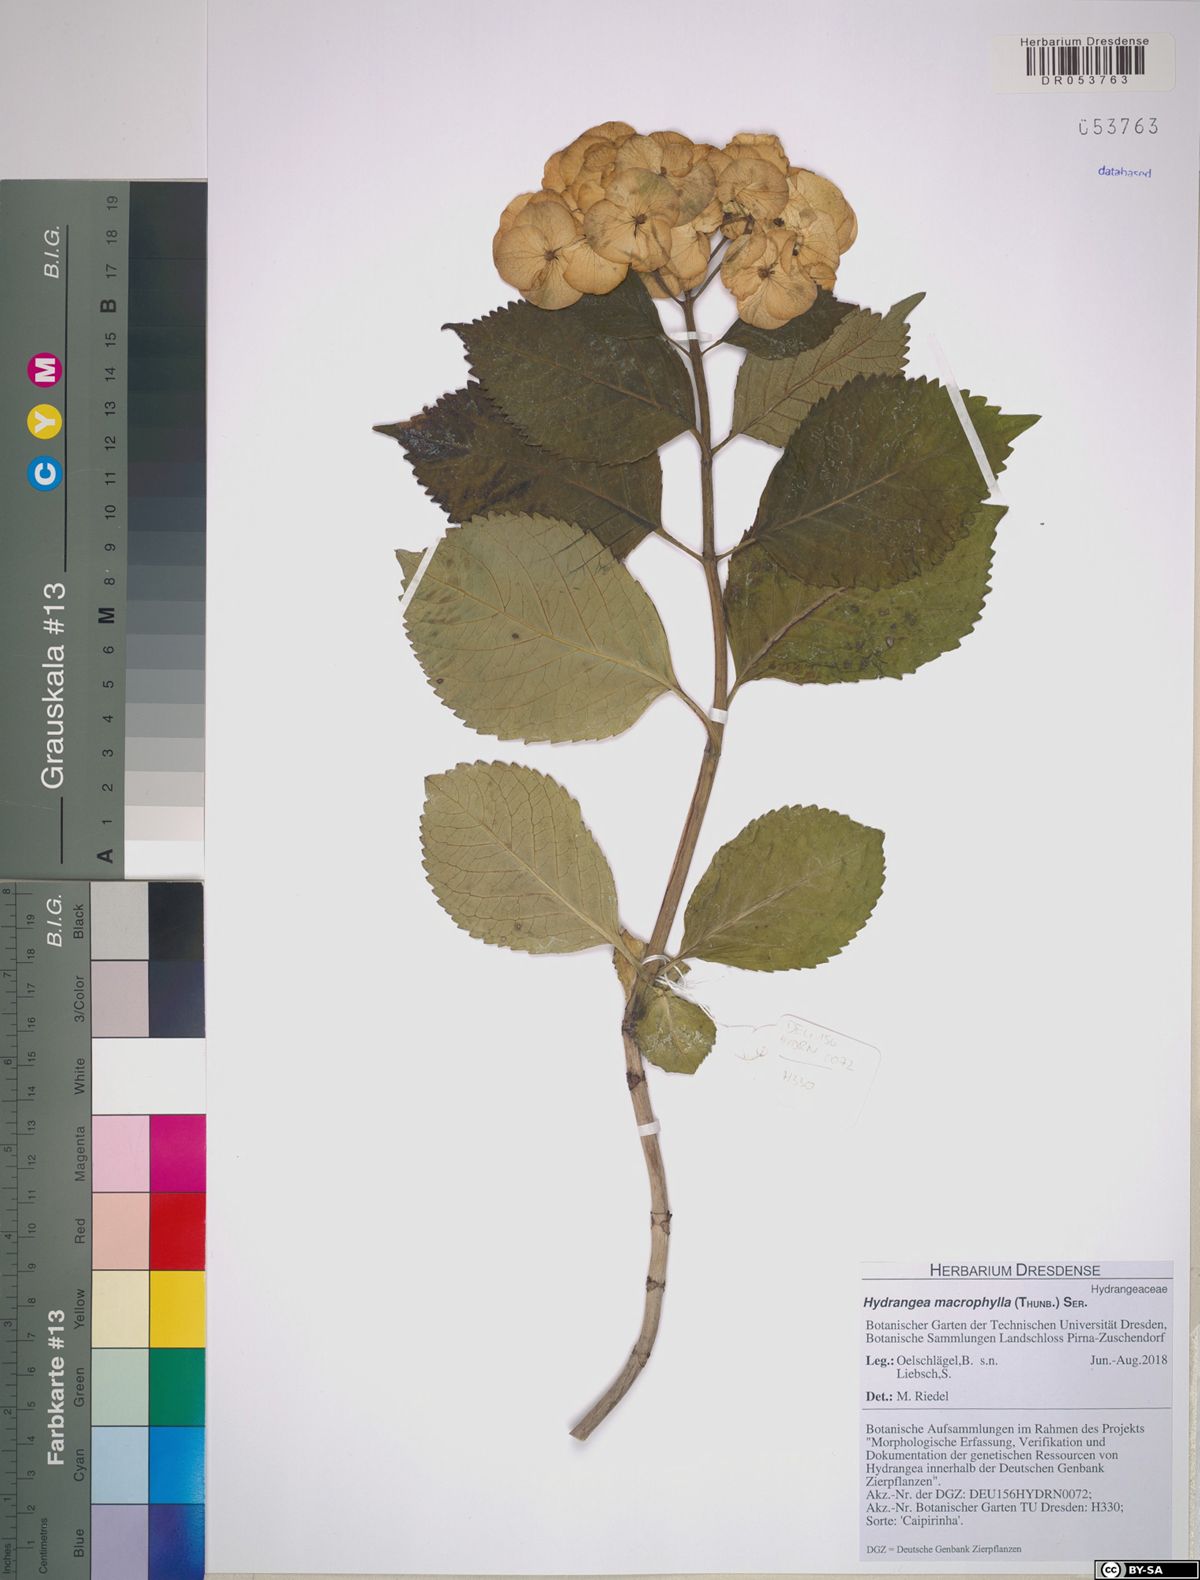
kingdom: Plantae
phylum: Tracheophyta
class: Magnoliopsida
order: Cornales
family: Hydrangeaceae
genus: Hydrangea
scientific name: Hydrangea macrophylla
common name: Hydrangea
